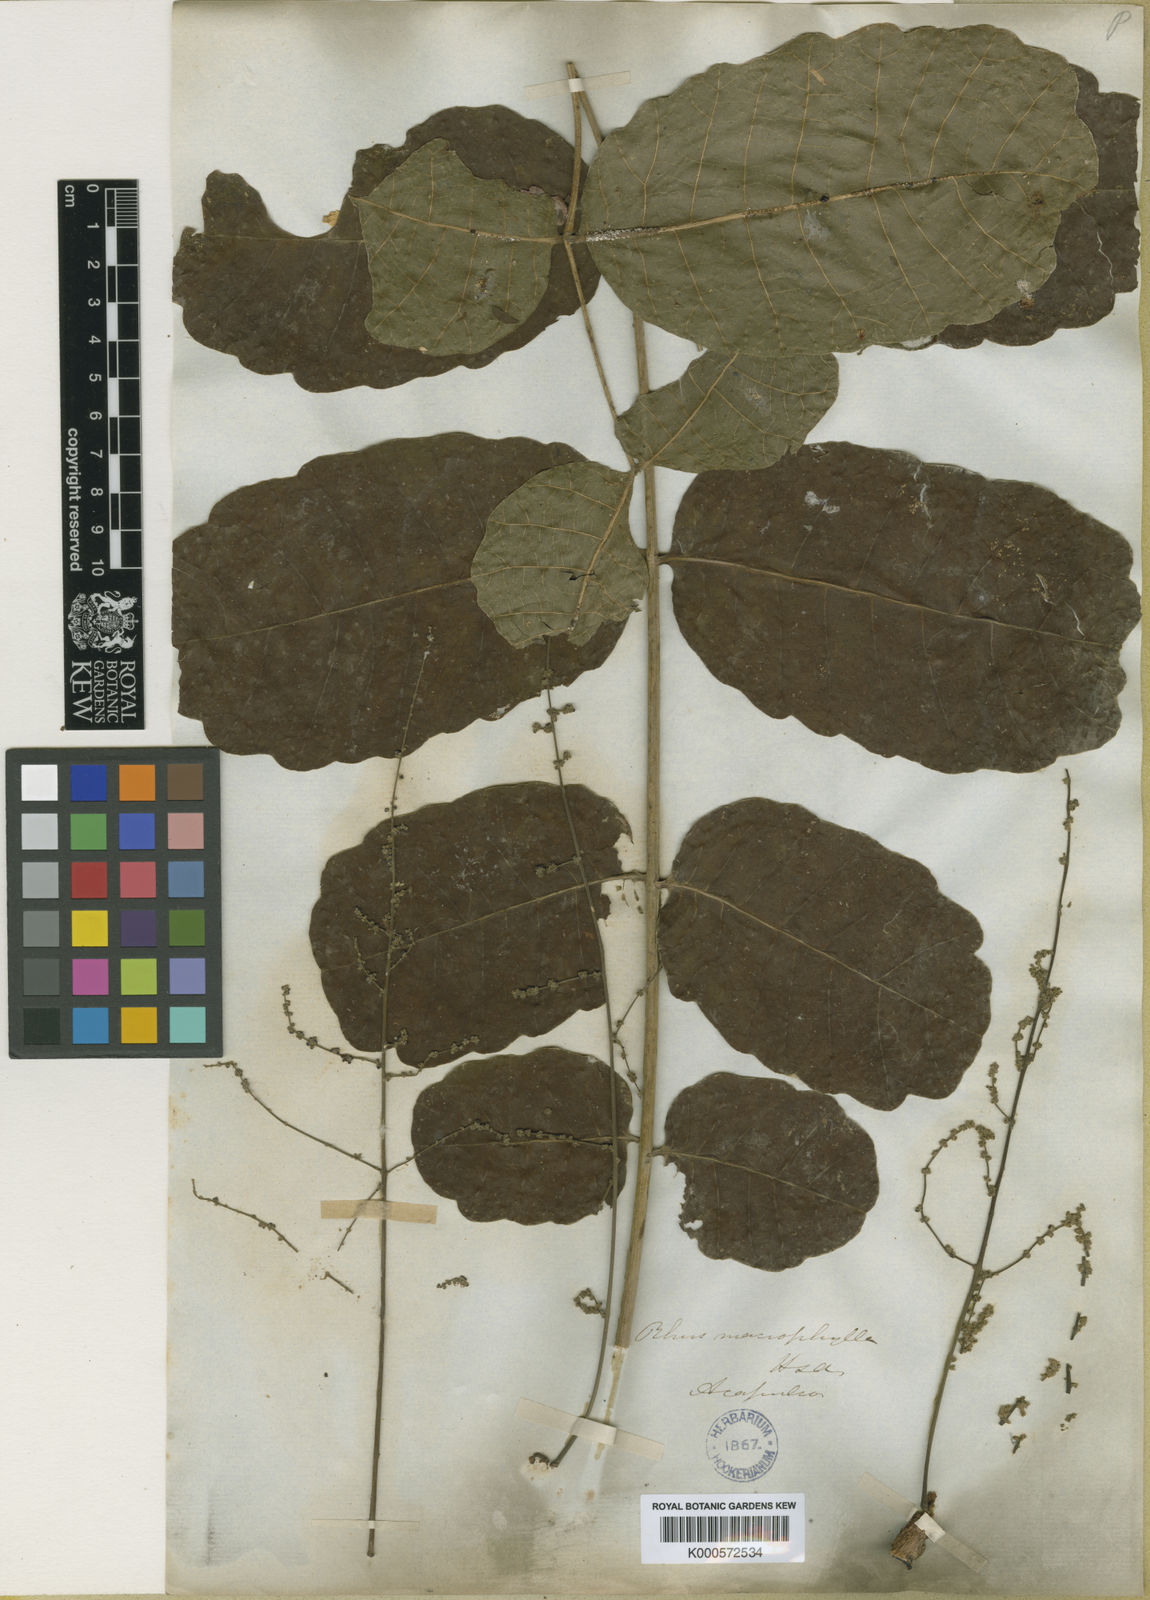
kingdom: Plantae
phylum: Tracheophyta
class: Magnoliopsida
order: Sapindales
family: Anacardiaceae
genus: Comocladia
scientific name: Comocladia macrophylla
